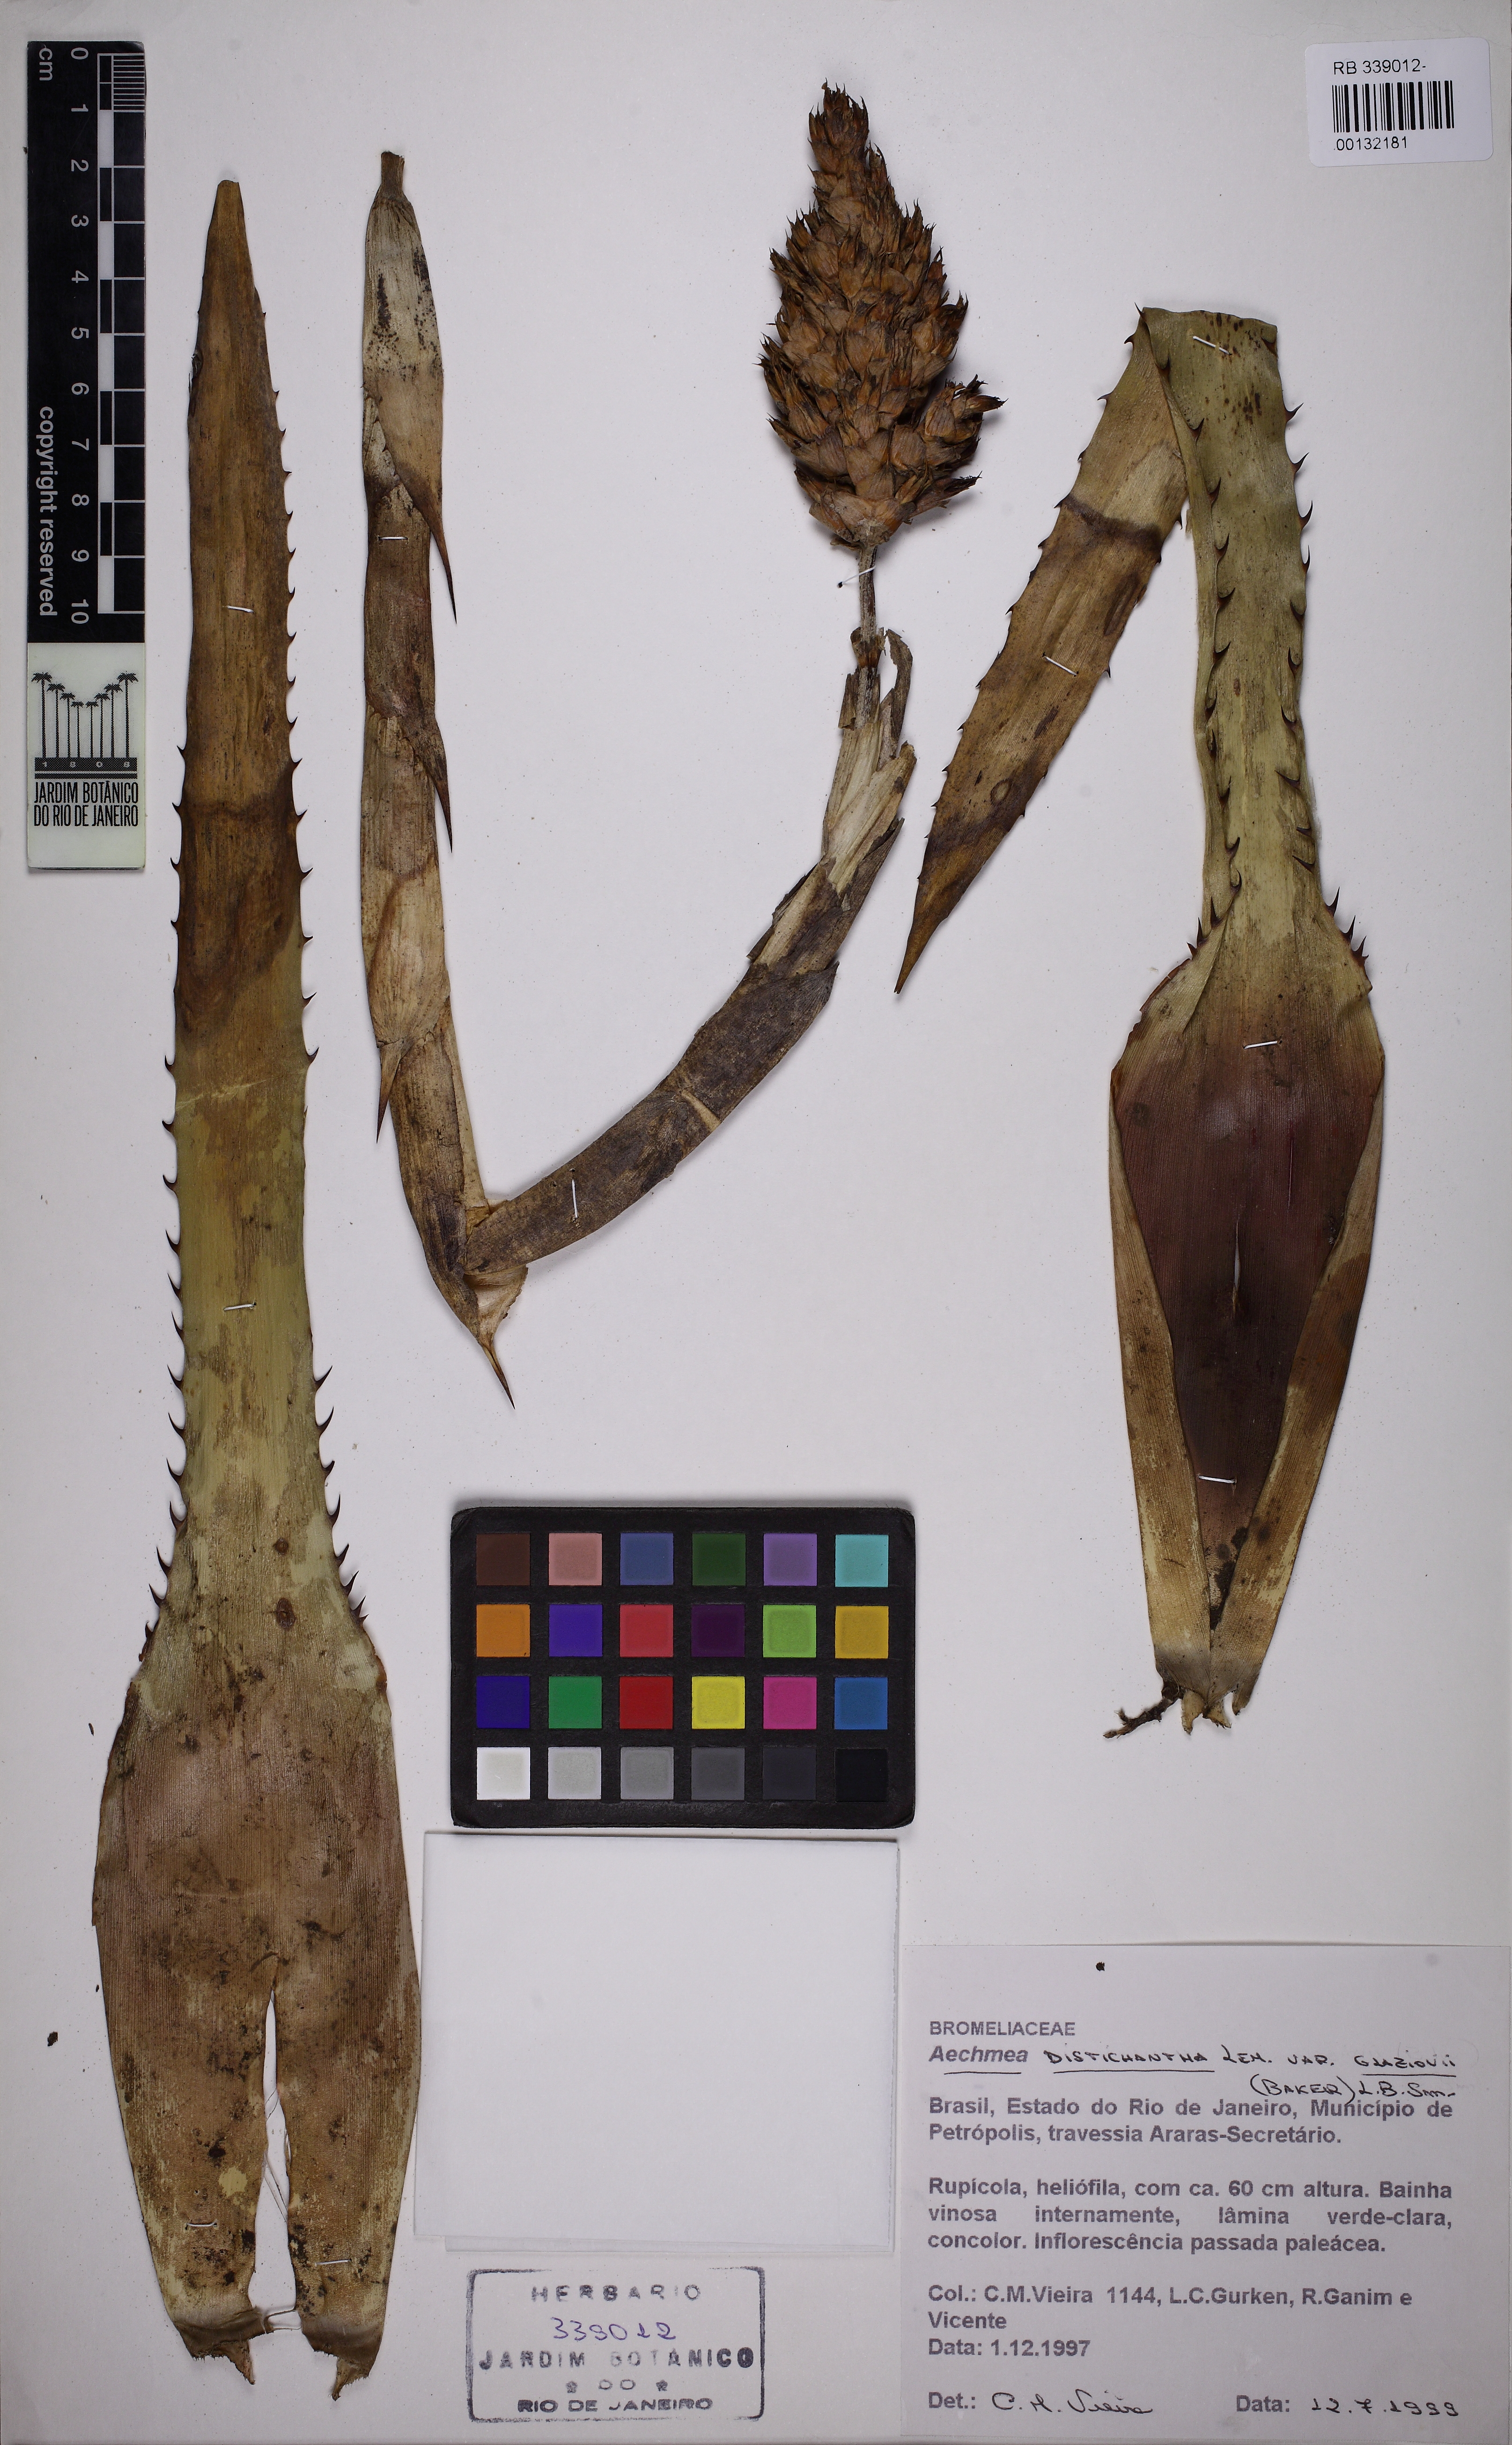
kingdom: Plantae
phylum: Tracheophyta
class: Liliopsida
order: Poales
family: Bromeliaceae
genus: Aechmea
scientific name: Aechmea distichantha
